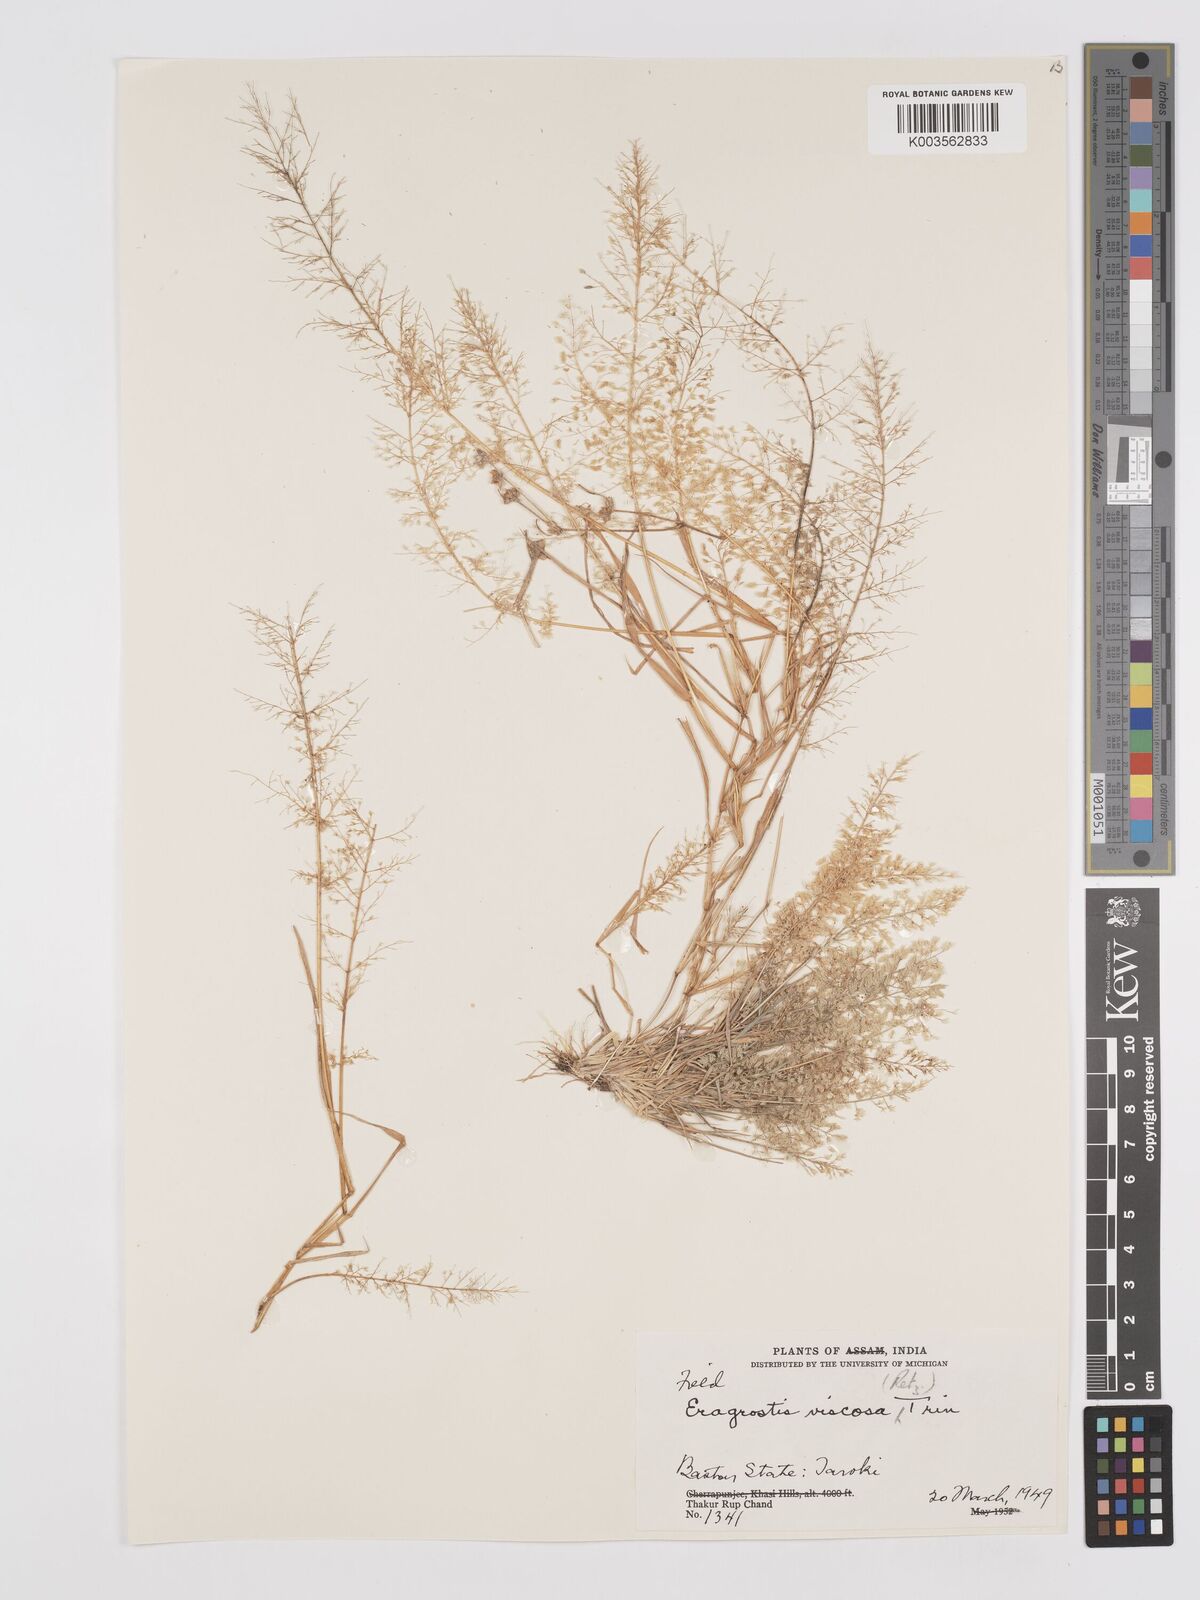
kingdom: Plantae
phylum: Tracheophyta
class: Liliopsida
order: Poales
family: Poaceae
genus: Eragrostis
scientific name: Eragrostis viscosa
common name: Sticky love grass
